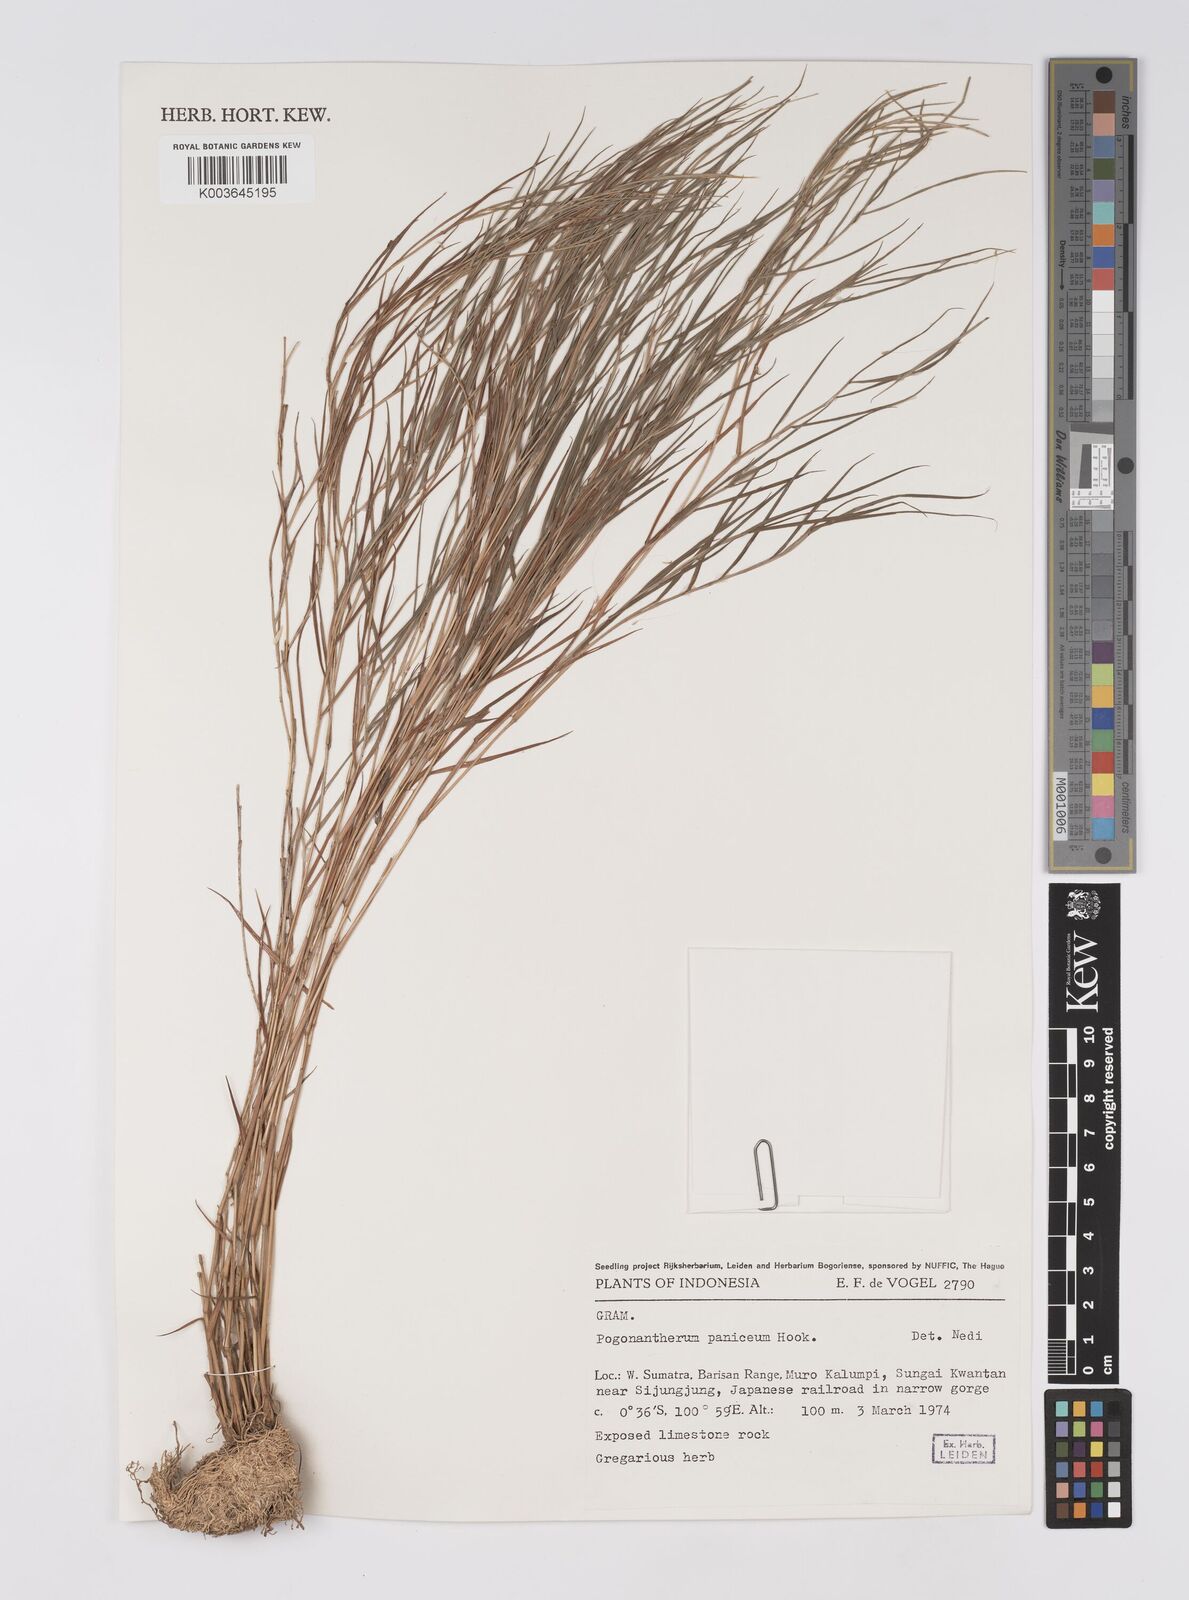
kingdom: Plantae
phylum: Tracheophyta
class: Liliopsida
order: Poales
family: Poaceae
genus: Pogonatherum
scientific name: Pogonatherum paniceum
